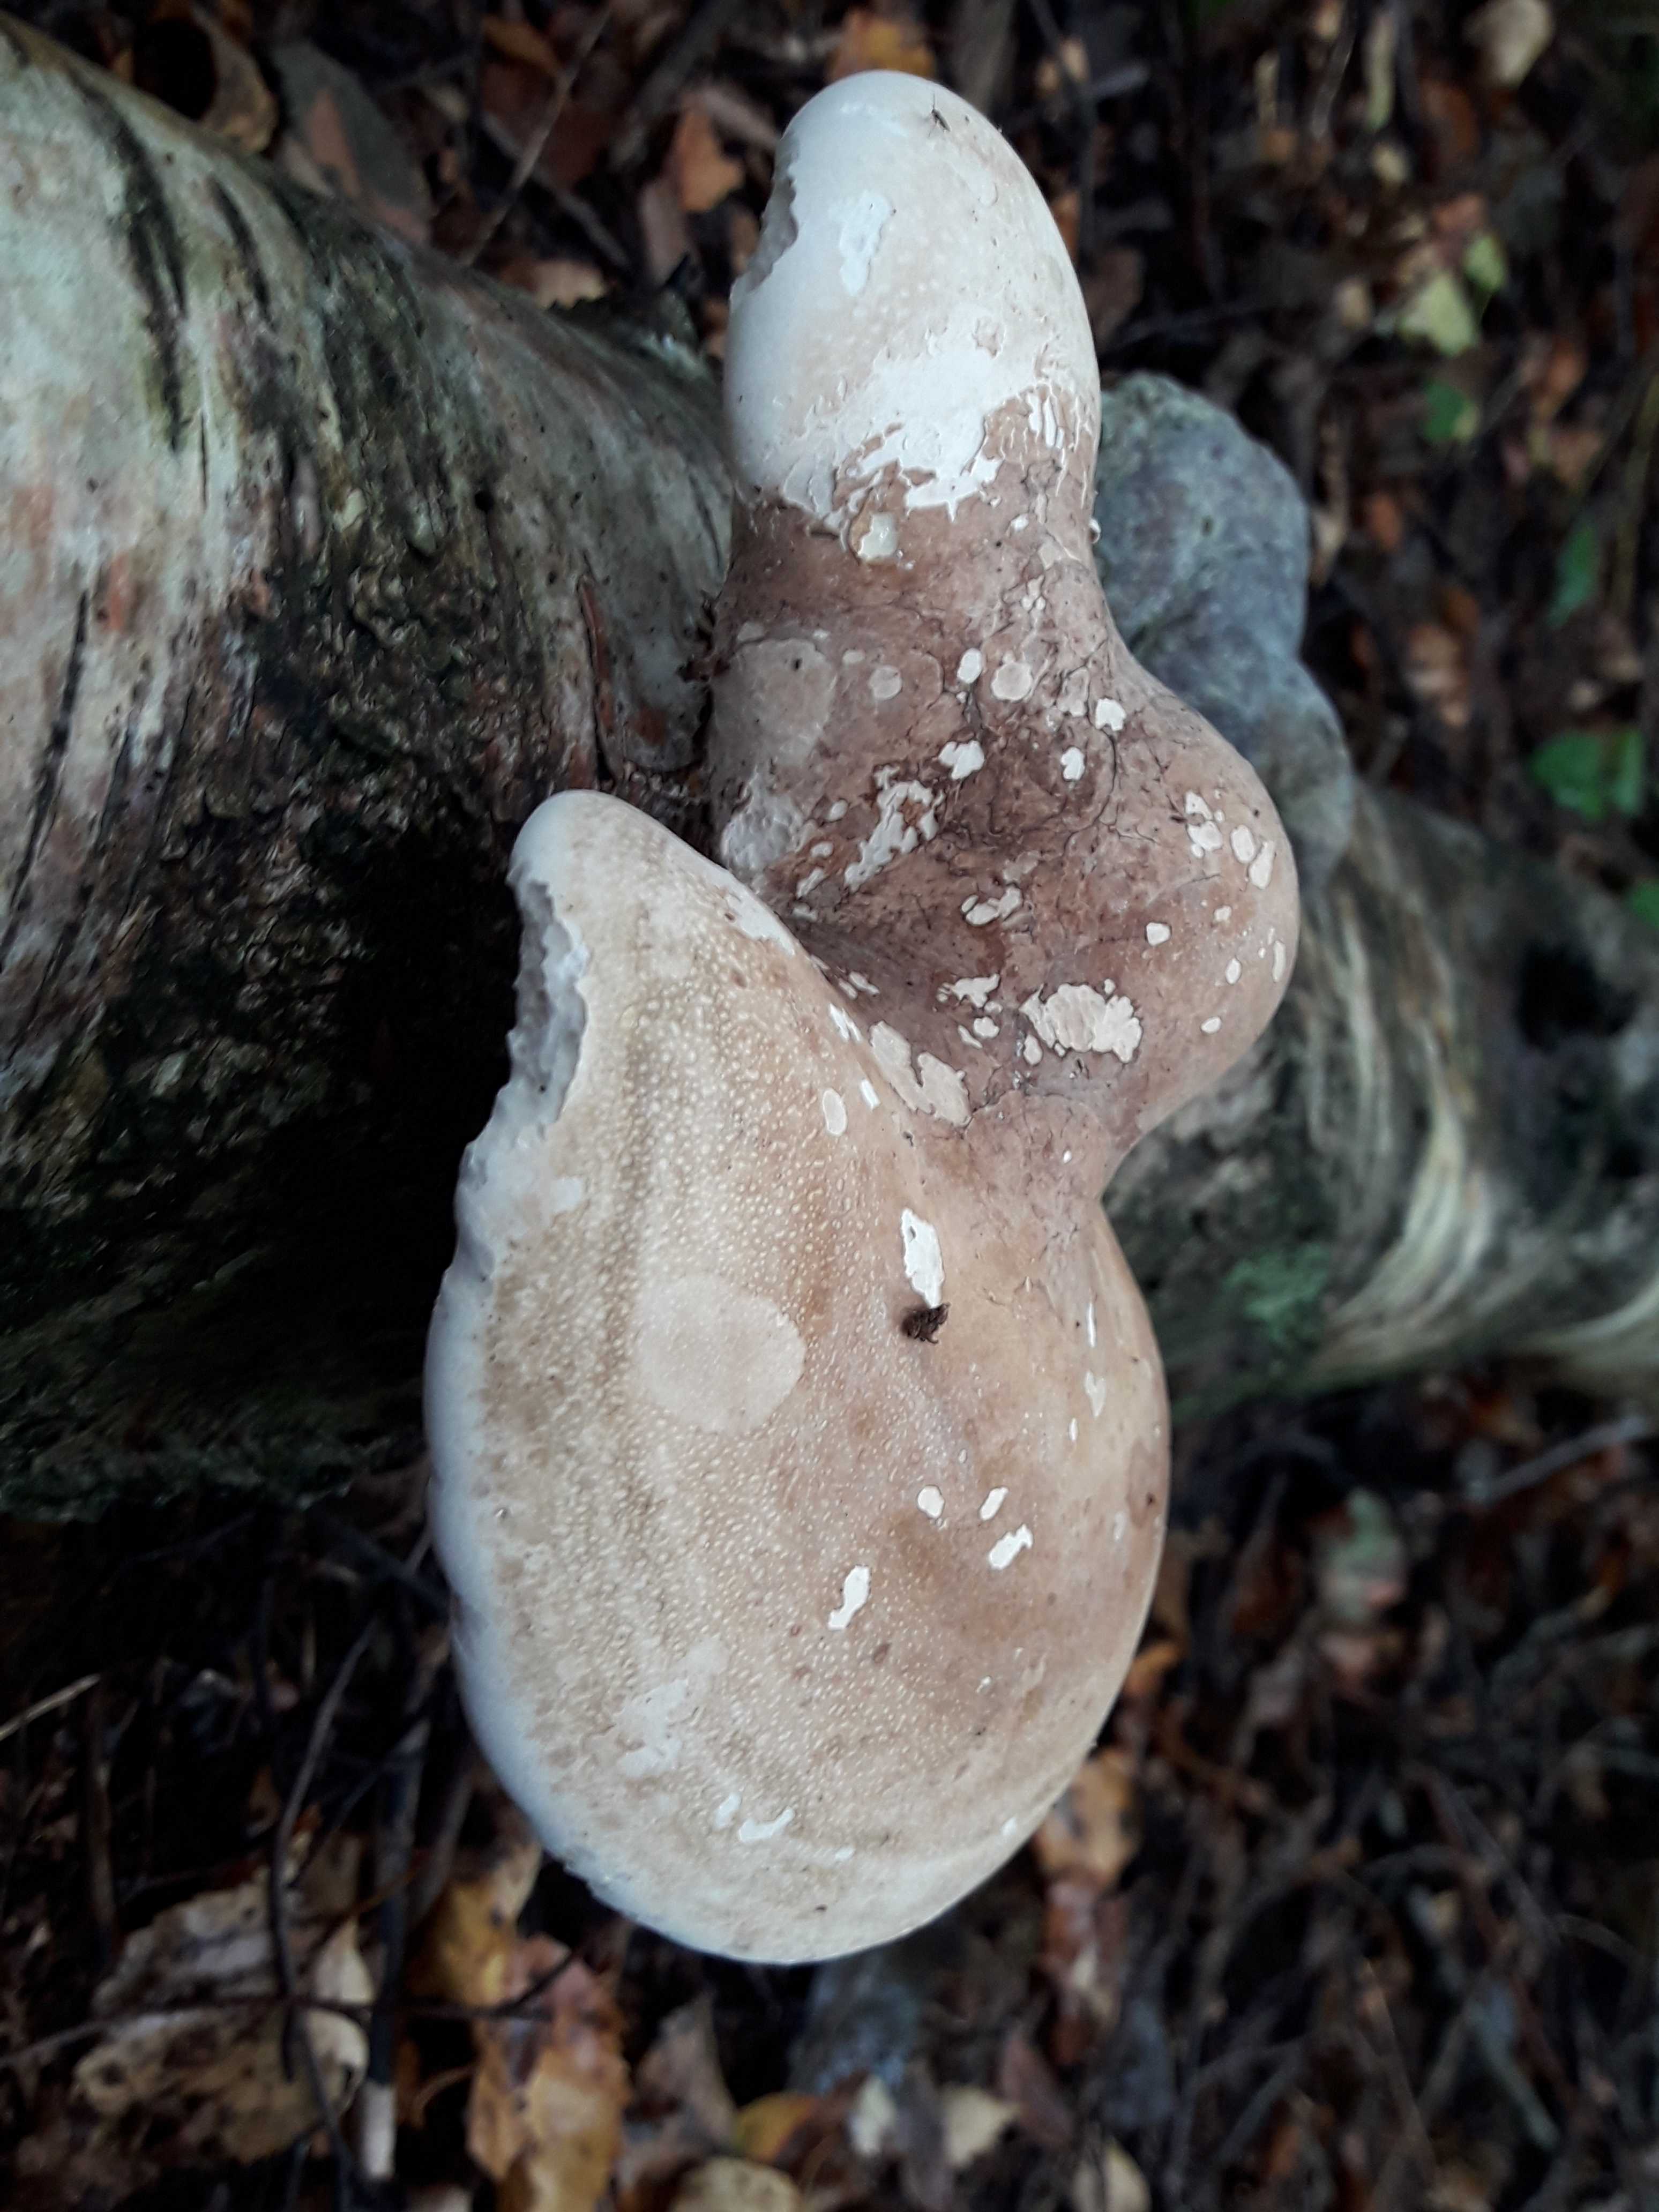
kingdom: Fungi
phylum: Basidiomycota
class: Agaricomycetes
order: Polyporales
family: Fomitopsidaceae
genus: Fomitopsis
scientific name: Fomitopsis betulina
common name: birkeporesvamp
